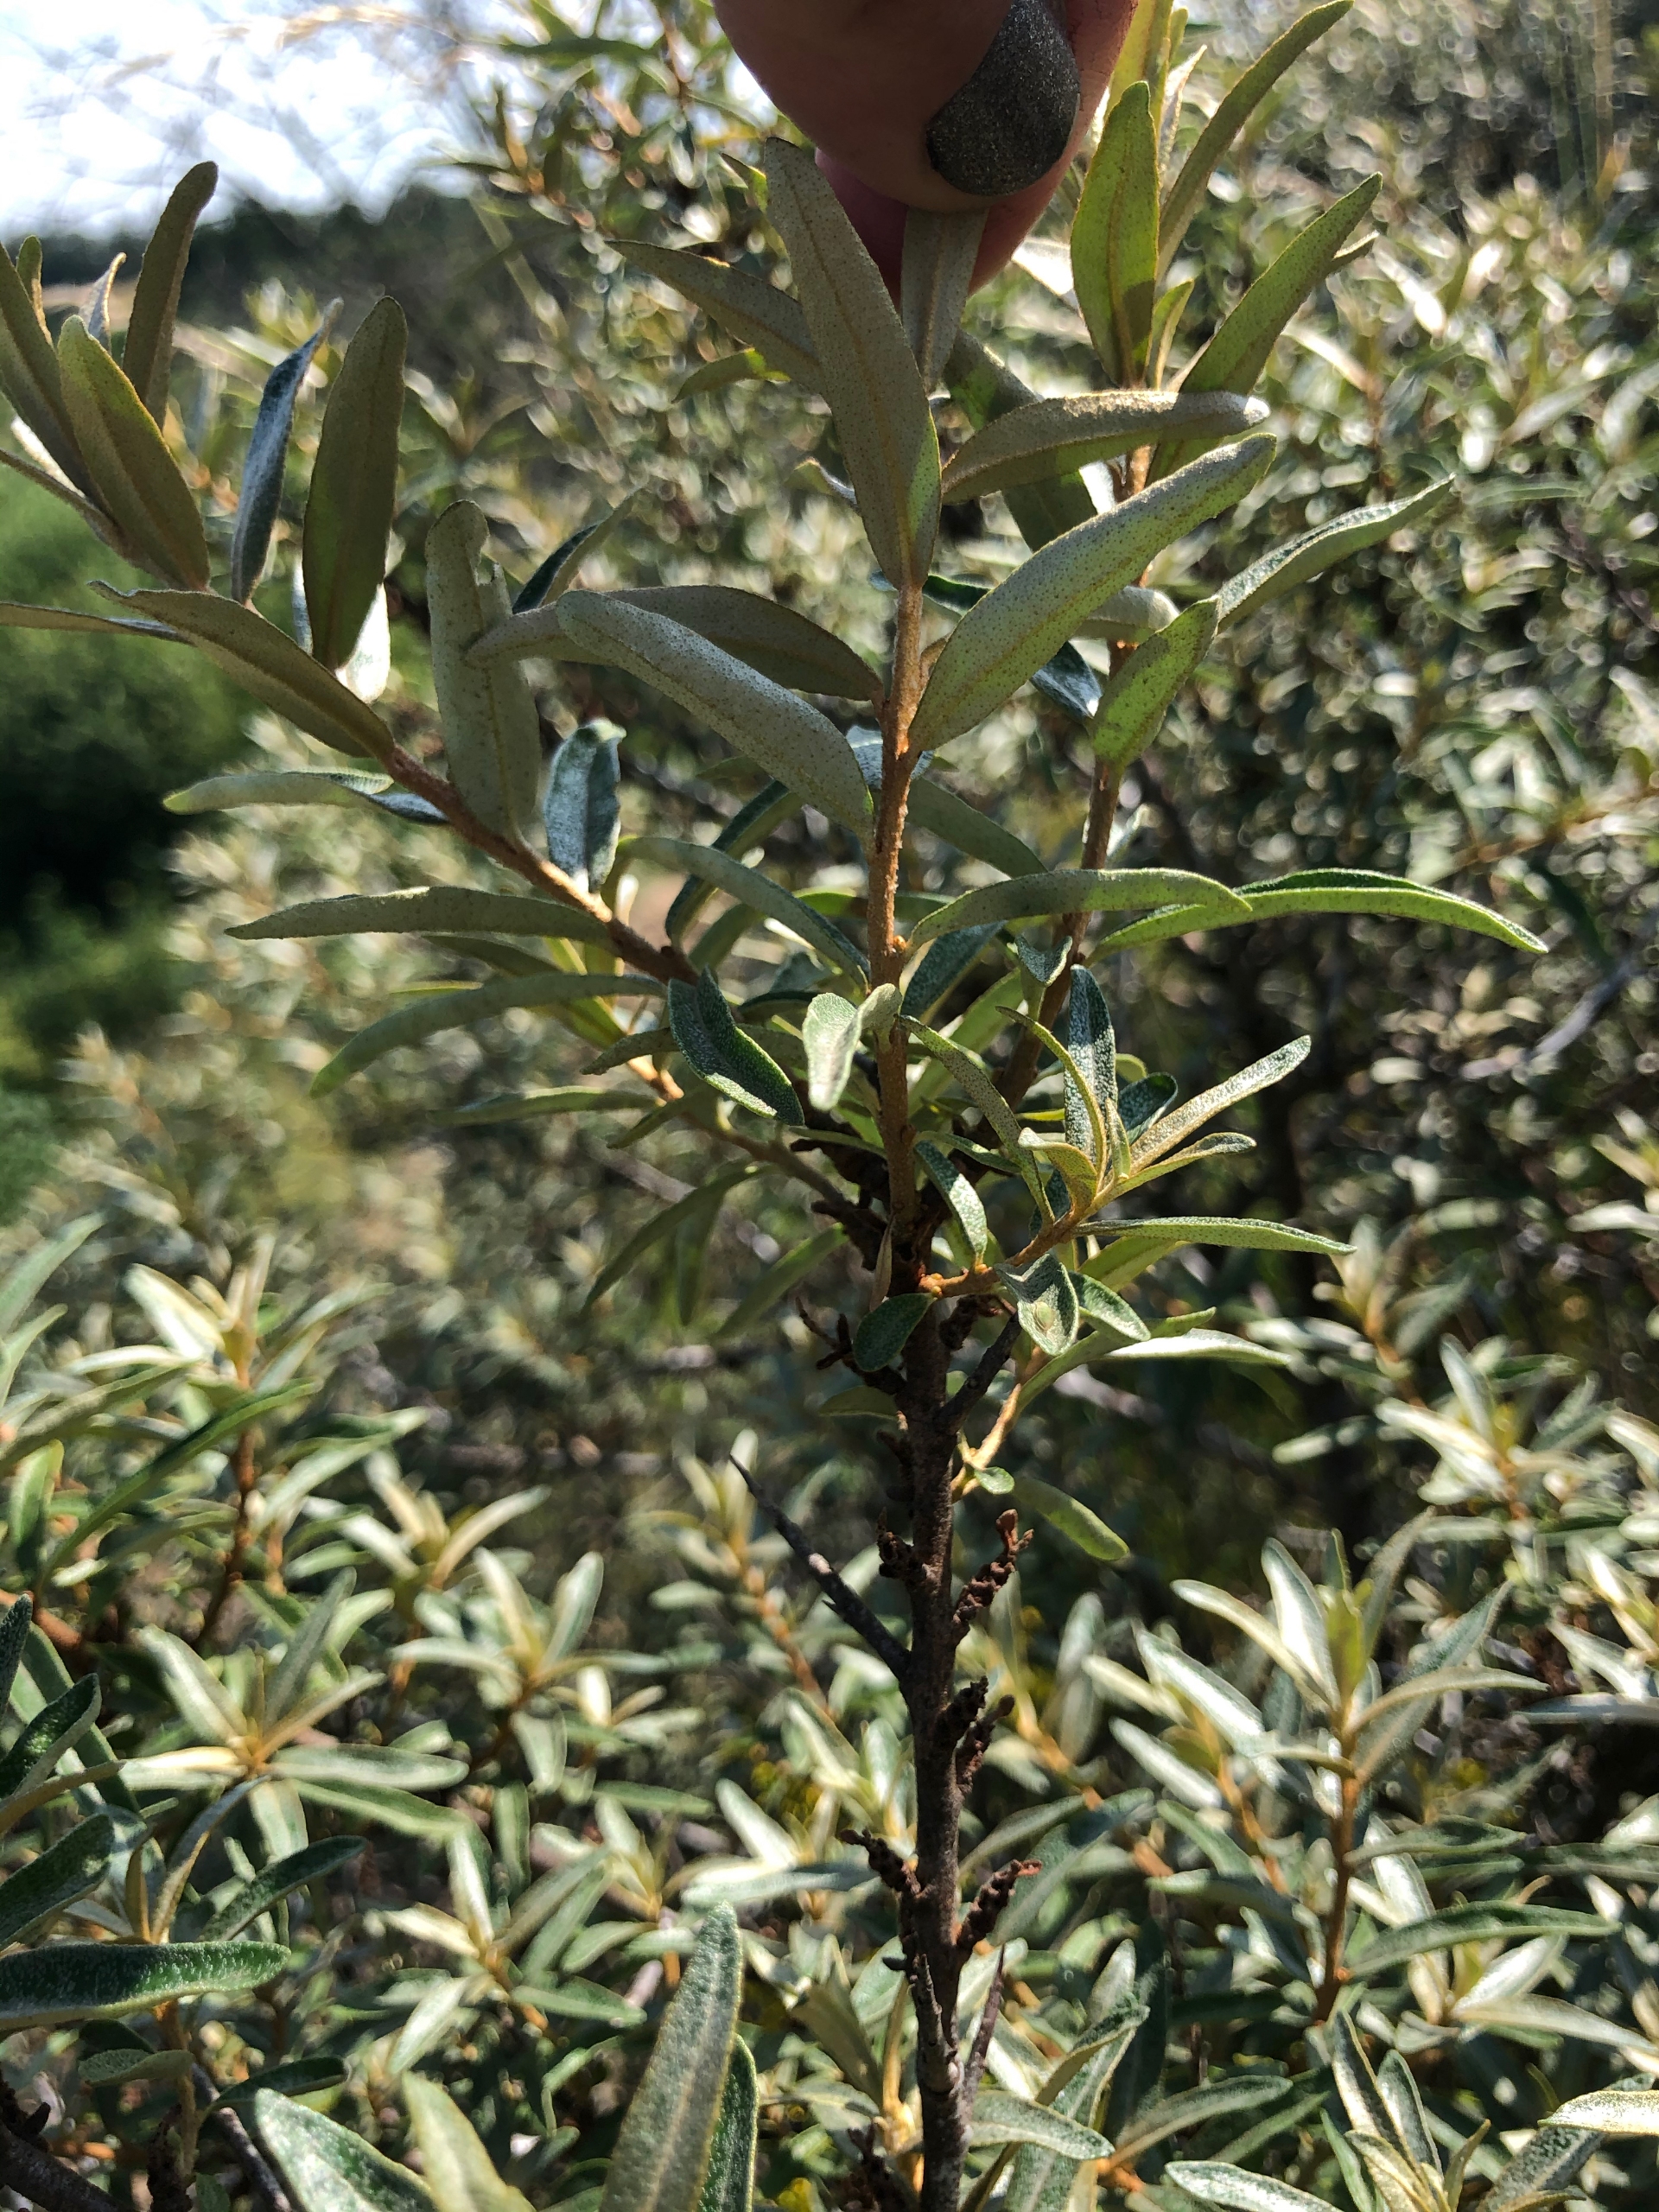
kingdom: Plantae
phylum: Tracheophyta
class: Magnoliopsida
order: Rosales
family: Elaeagnaceae
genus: Hippophae
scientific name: Hippophae rhamnoides
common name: Havtorn
